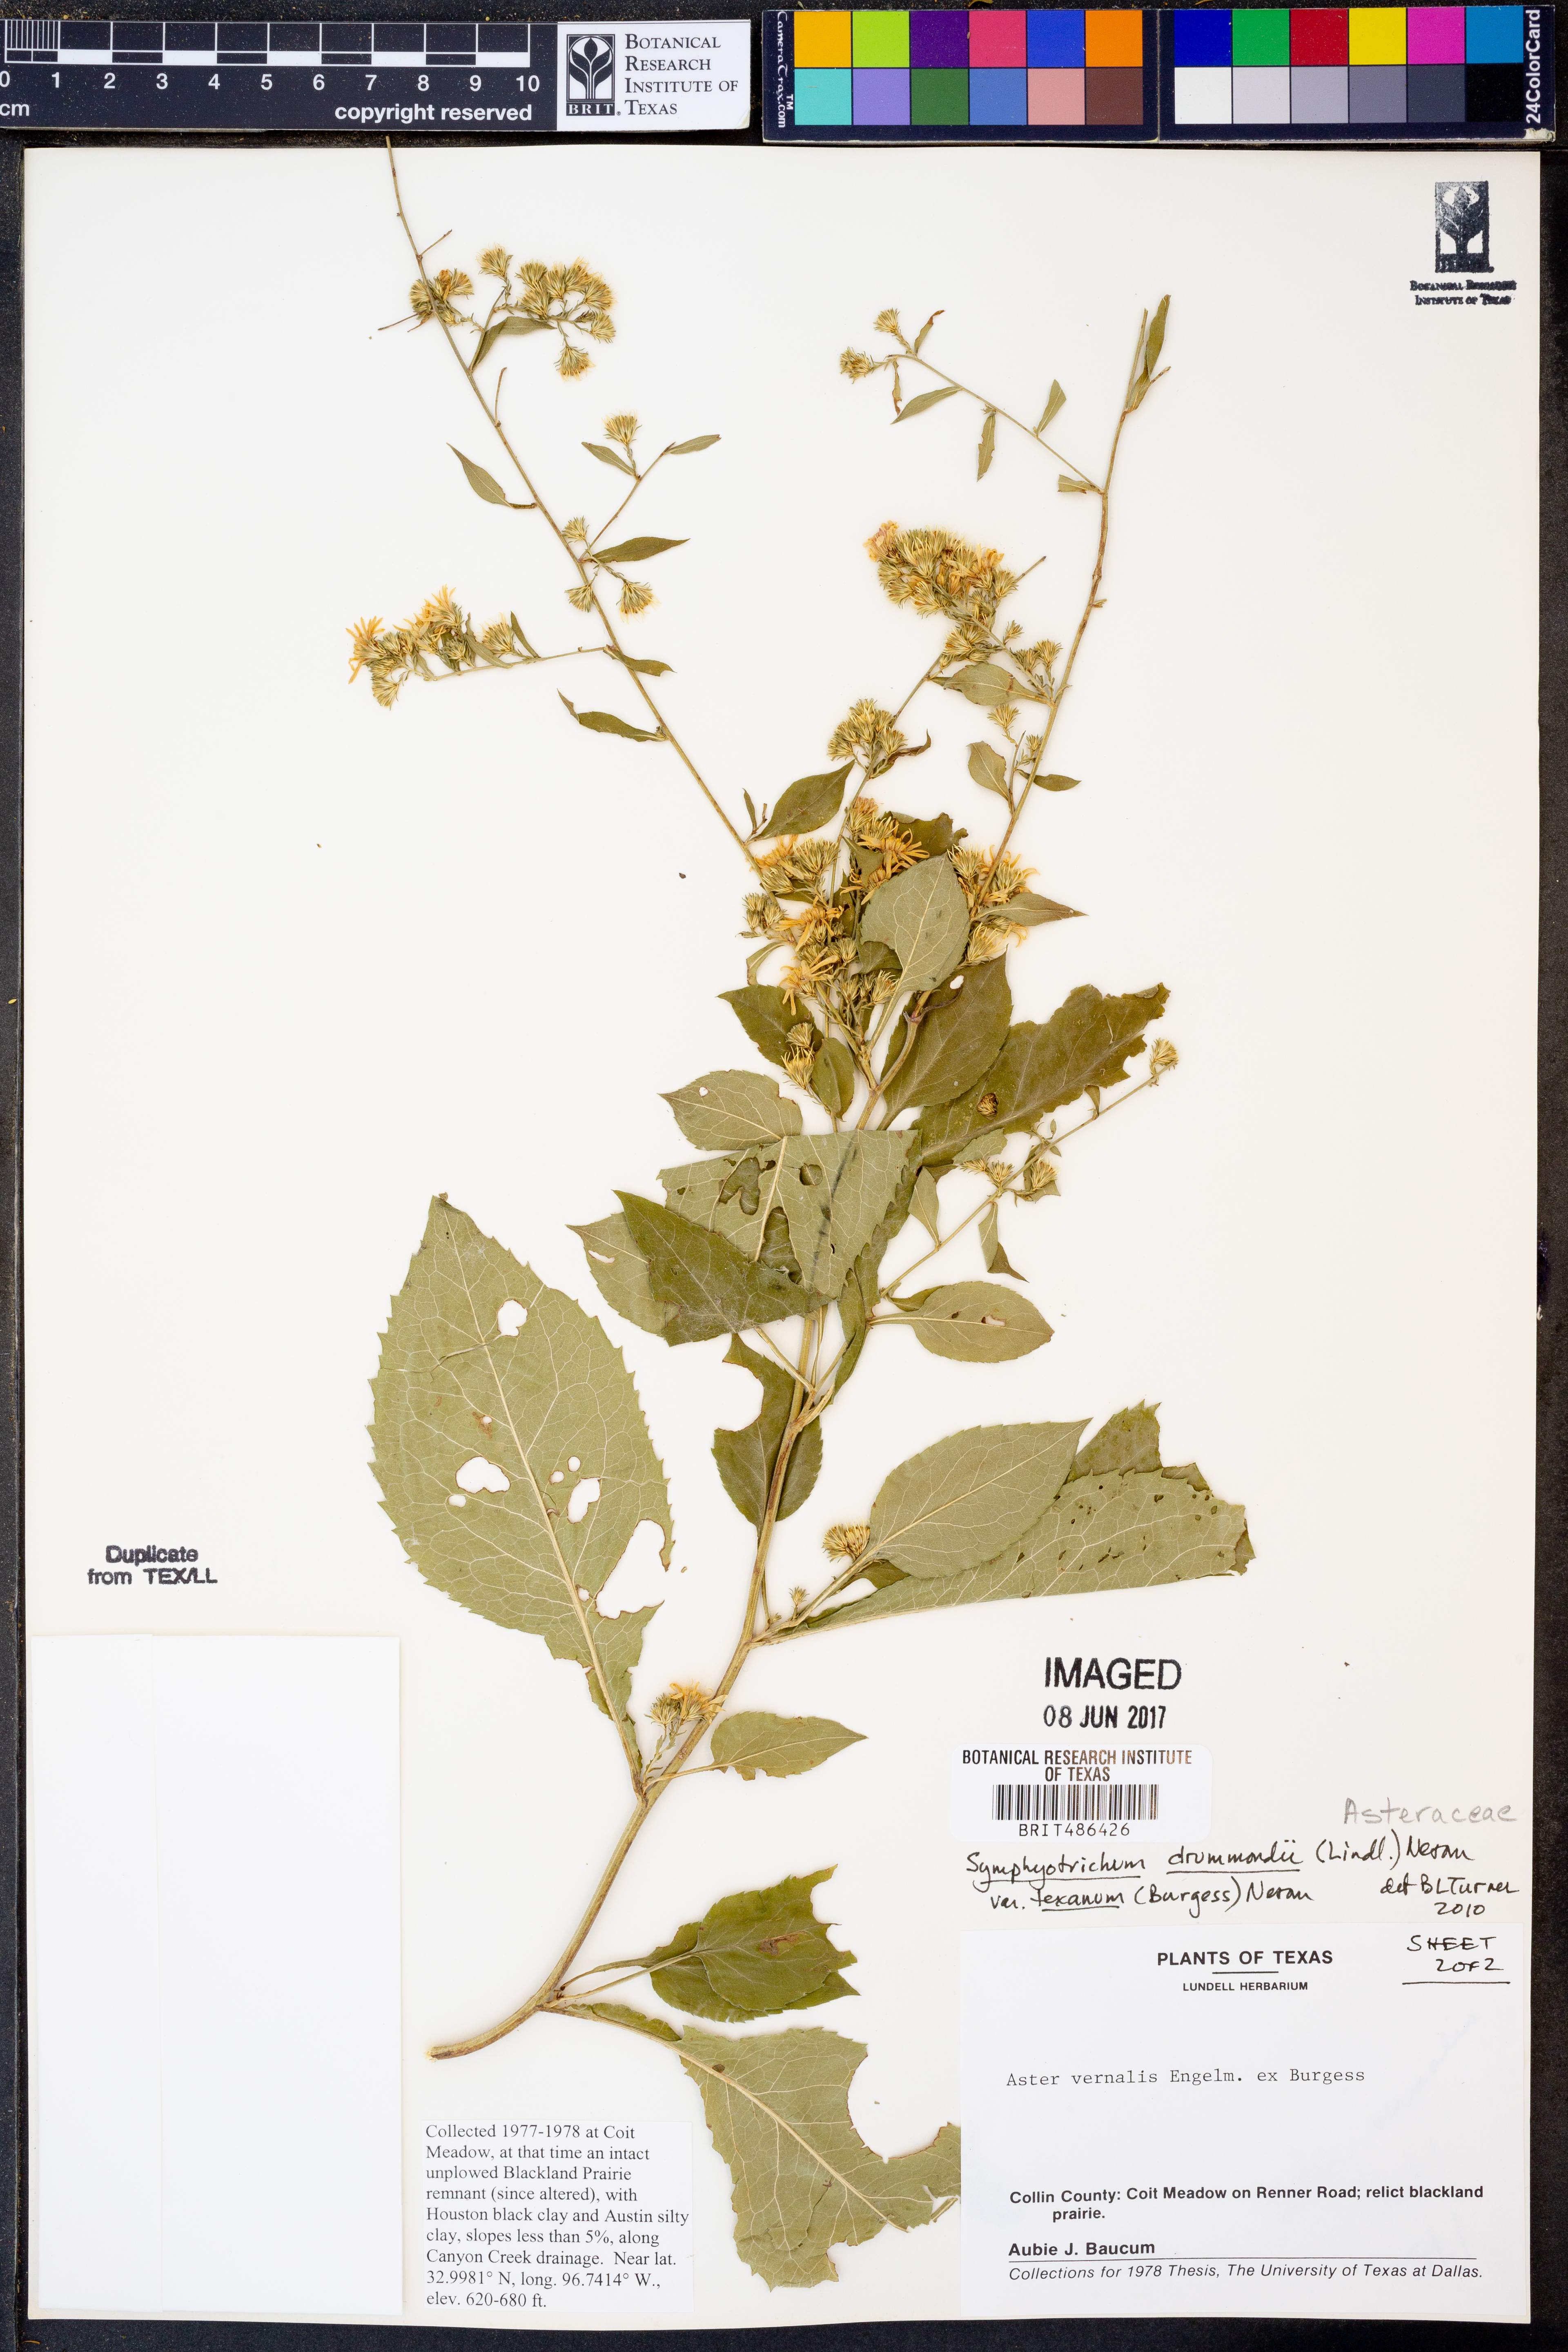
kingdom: Plantae
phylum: Tracheophyta
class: Magnoliopsida
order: Asterales
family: Asteraceae
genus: Symphyotrichum
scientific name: Symphyotrichum drummondii
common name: Drummond's aster
